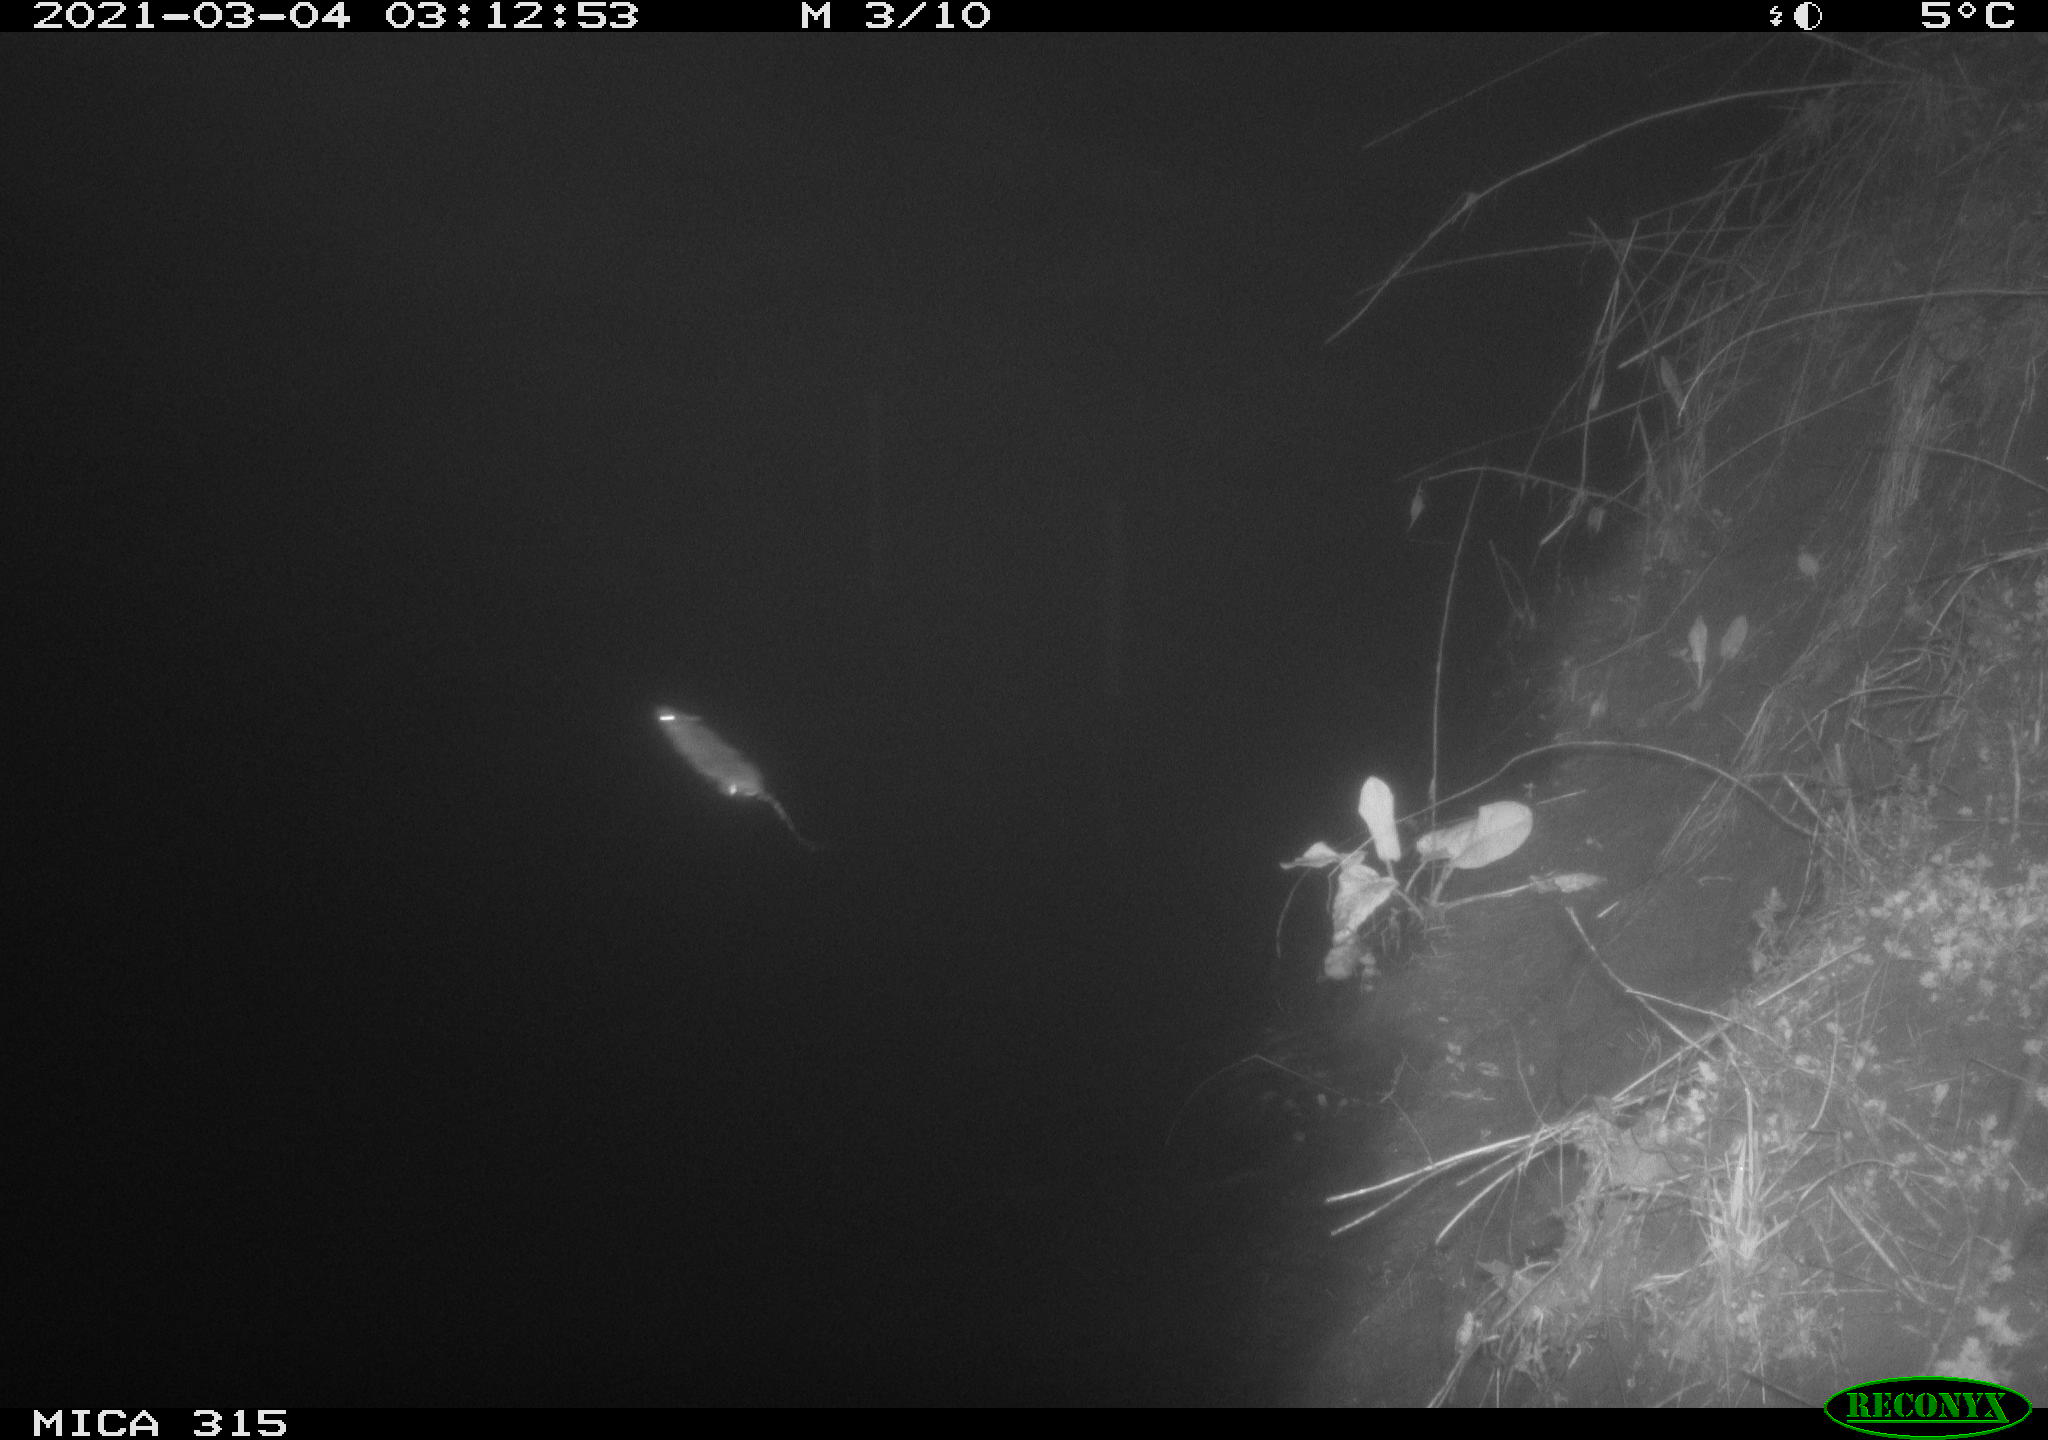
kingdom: Animalia
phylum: Chordata
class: Mammalia
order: Rodentia
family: Muridae
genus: Rattus
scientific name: Rattus norvegicus
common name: Brown rat
